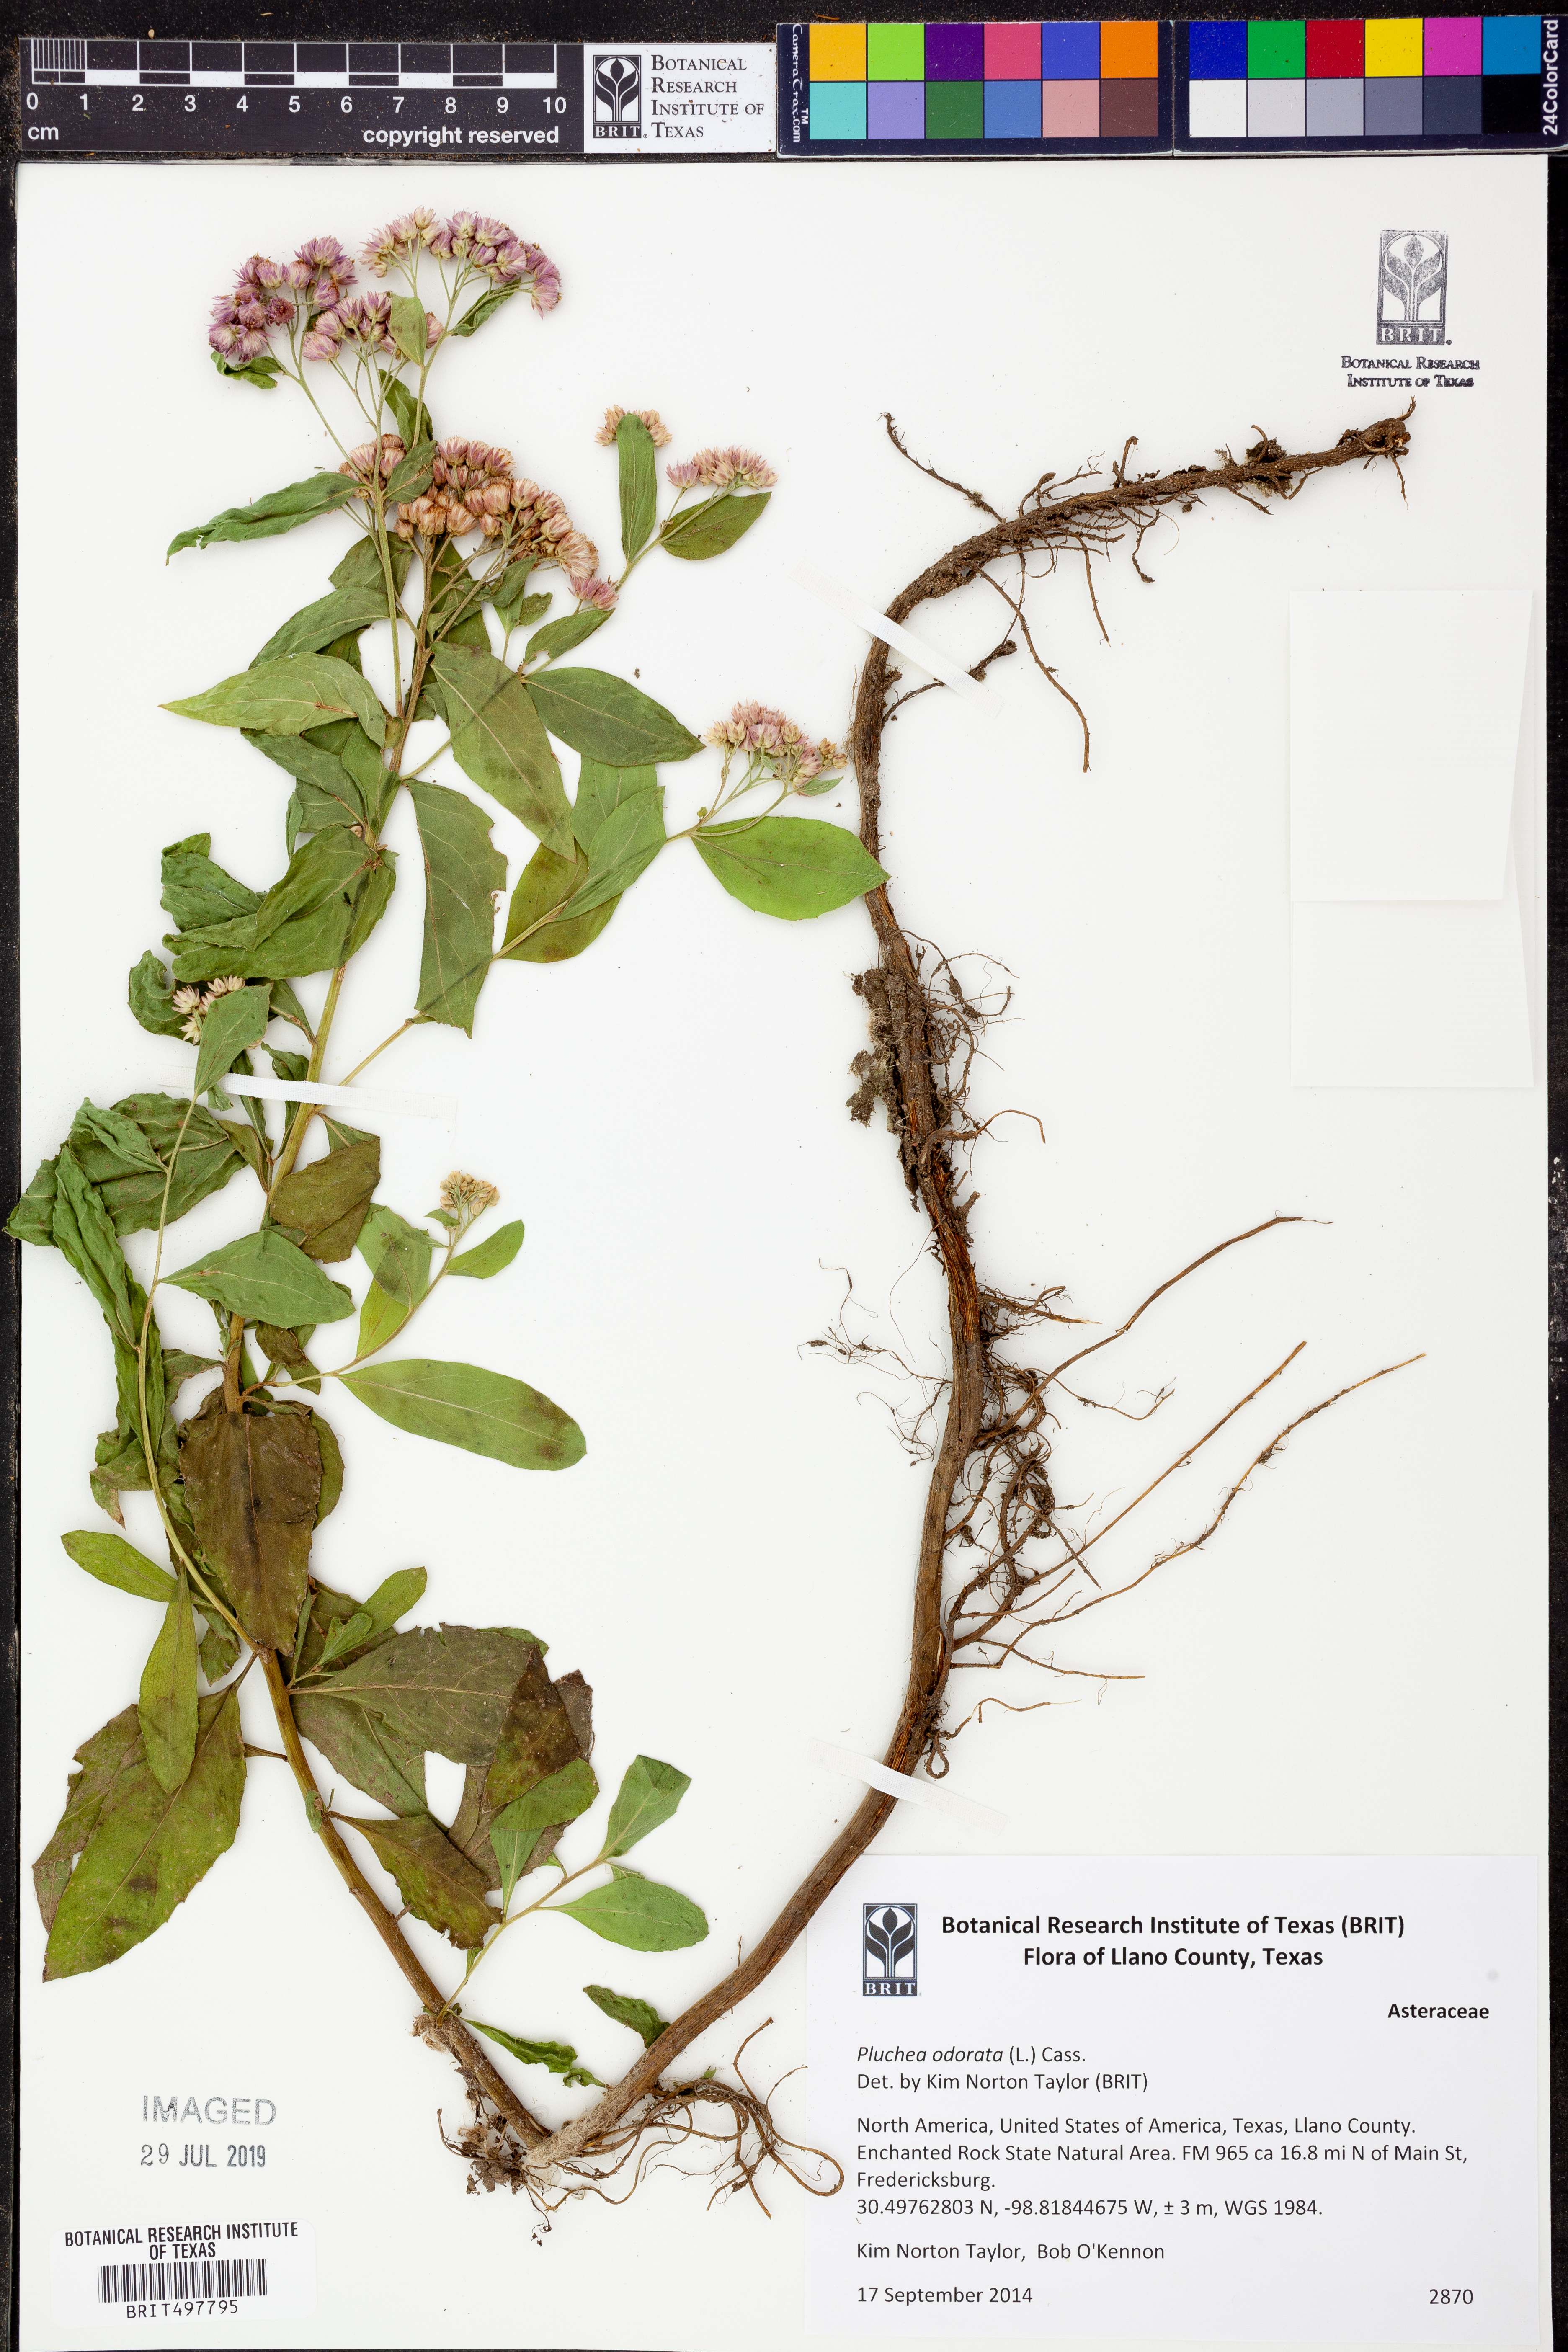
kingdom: Plantae
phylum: Tracheophyta
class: Magnoliopsida
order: Asterales
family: Asteraceae
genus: Pluchea
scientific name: Pluchea odorata
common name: Saltmarsh fleabane
